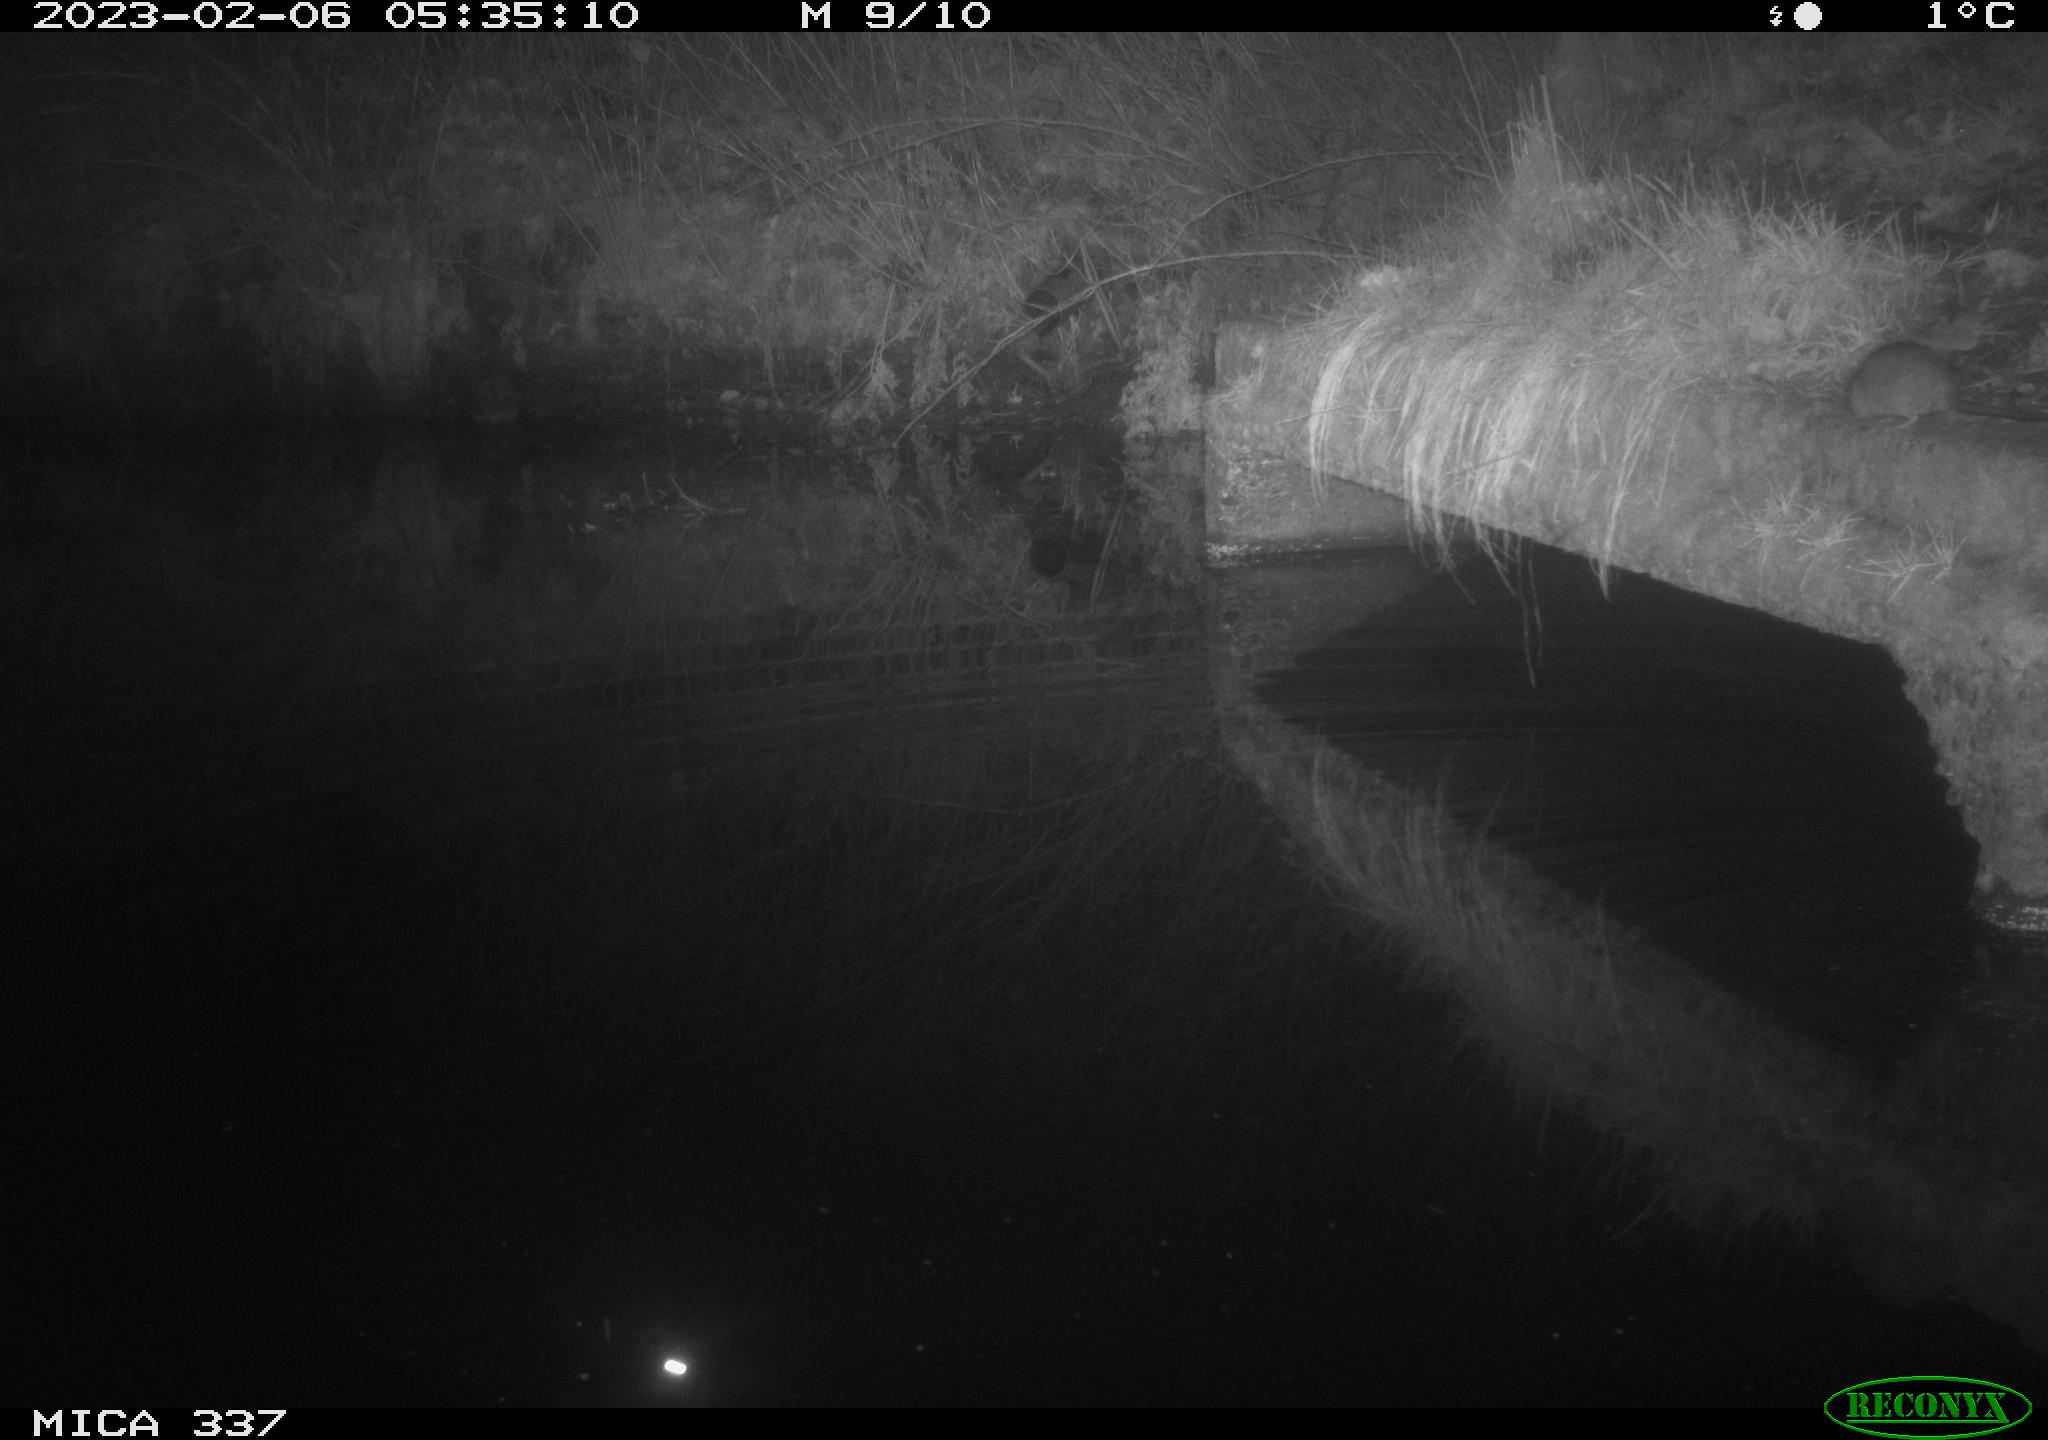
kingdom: Animalia
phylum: Chordata
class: Mammalia
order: Rodentia
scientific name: Rodentia
